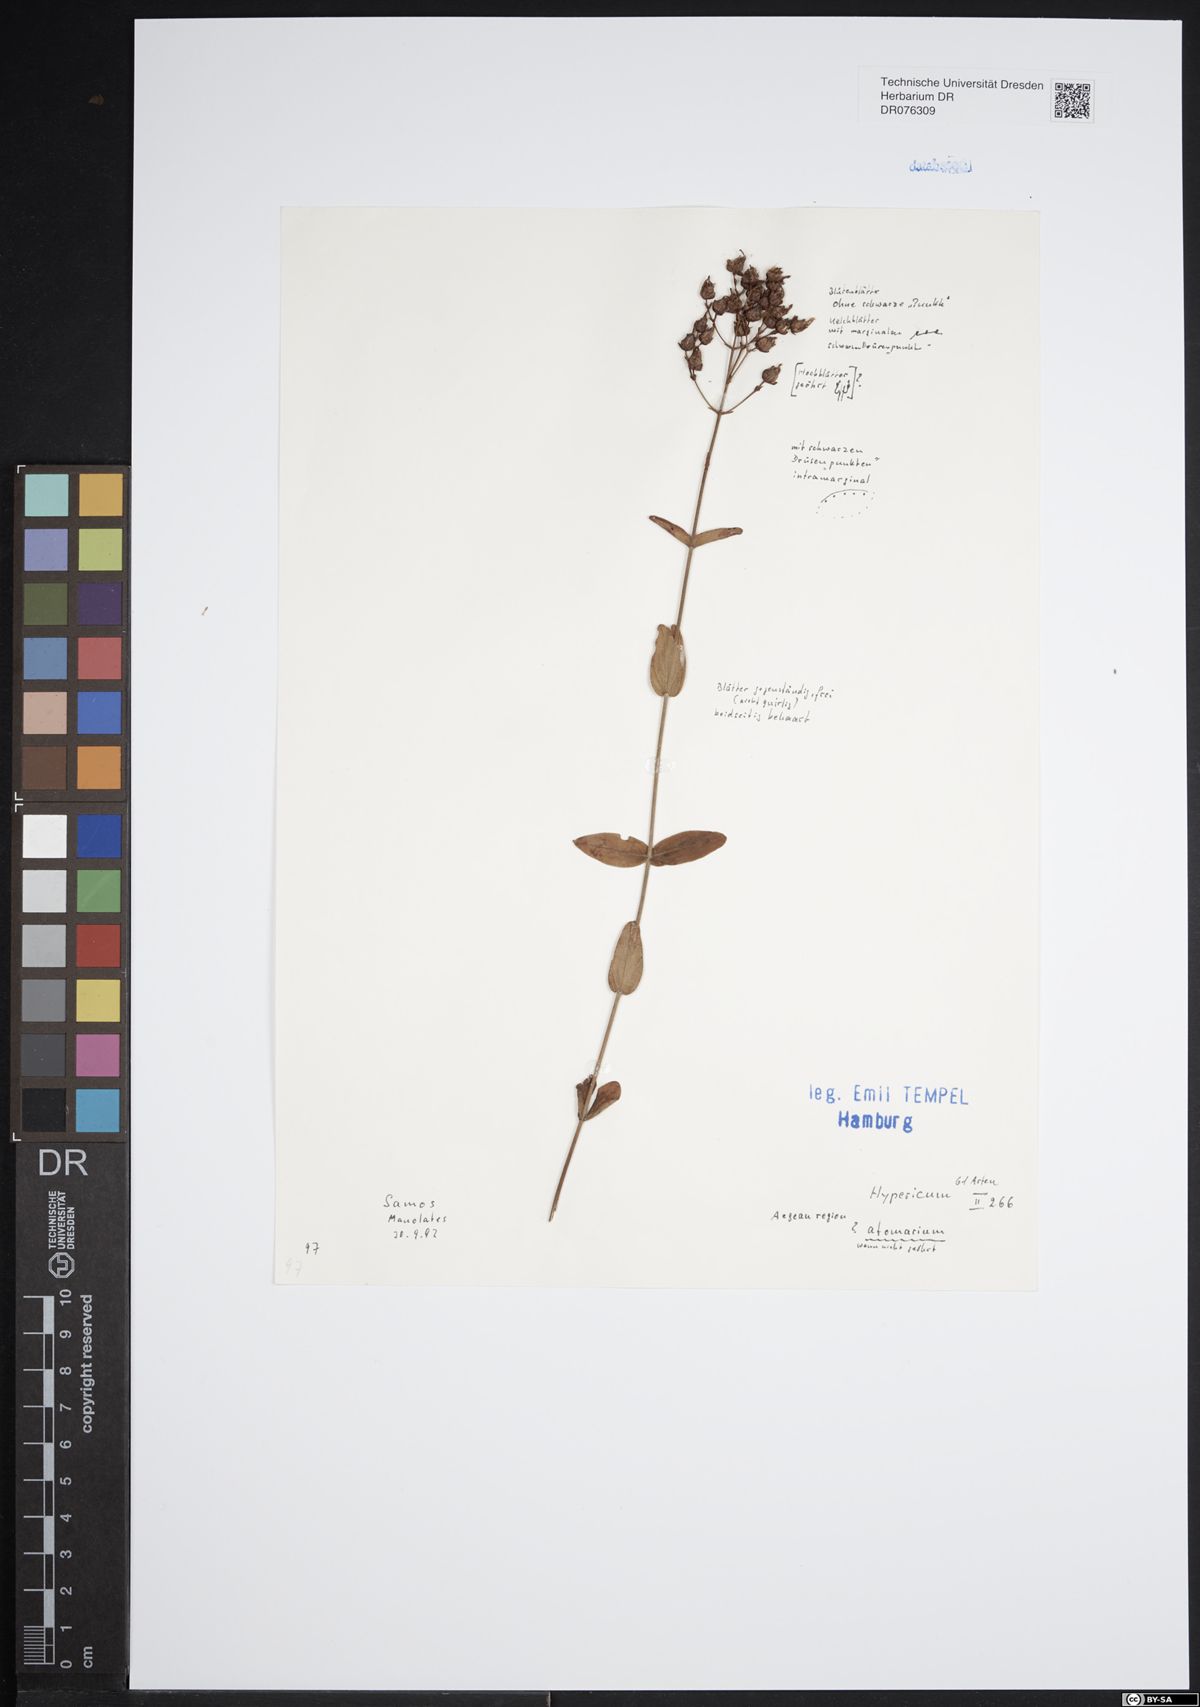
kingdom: Plantae
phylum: Tracheophyta
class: Magnoliopsida
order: Malpighiales
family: Hypericaceae
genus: Hypericum
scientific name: Hypericum atomarium
